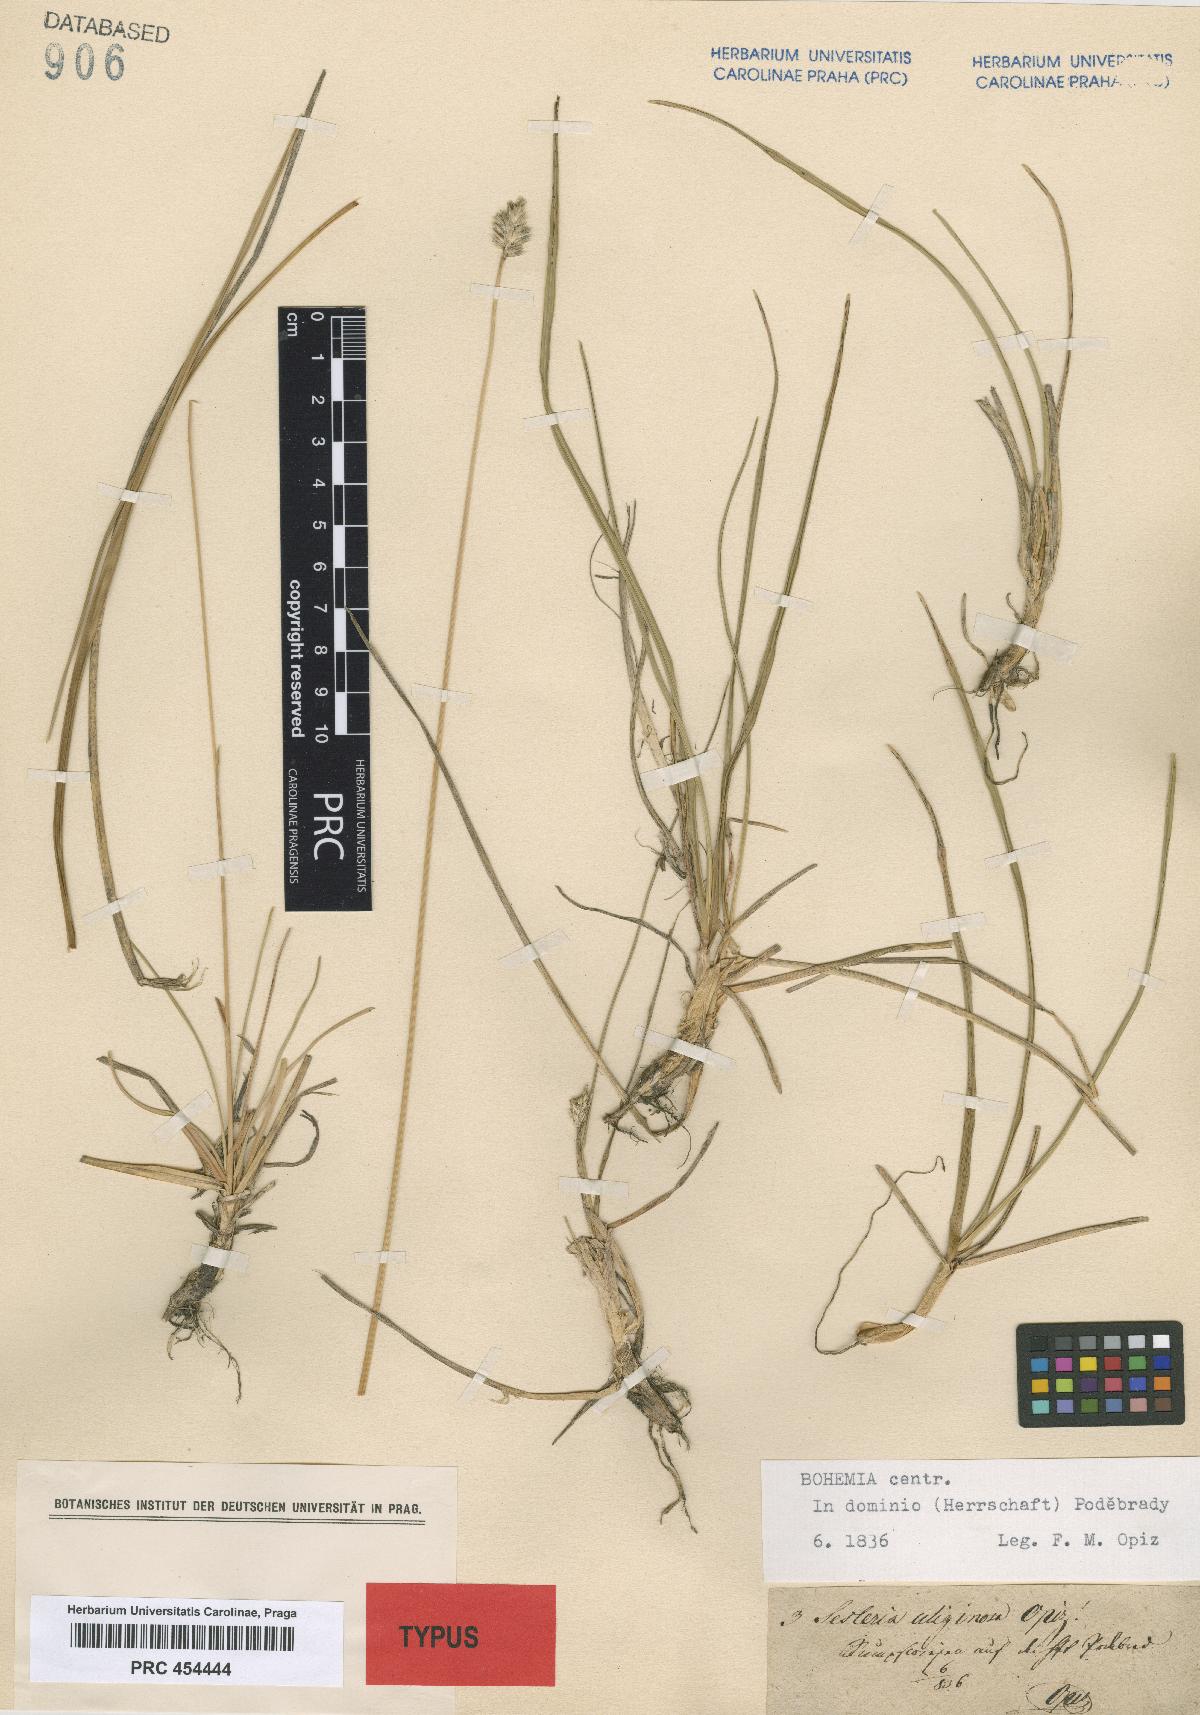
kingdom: Plantae
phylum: Tracheophyta
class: Liliopsida
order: Poales
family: Poaceae
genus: Sesleria
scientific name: Sesleria uliginosa
